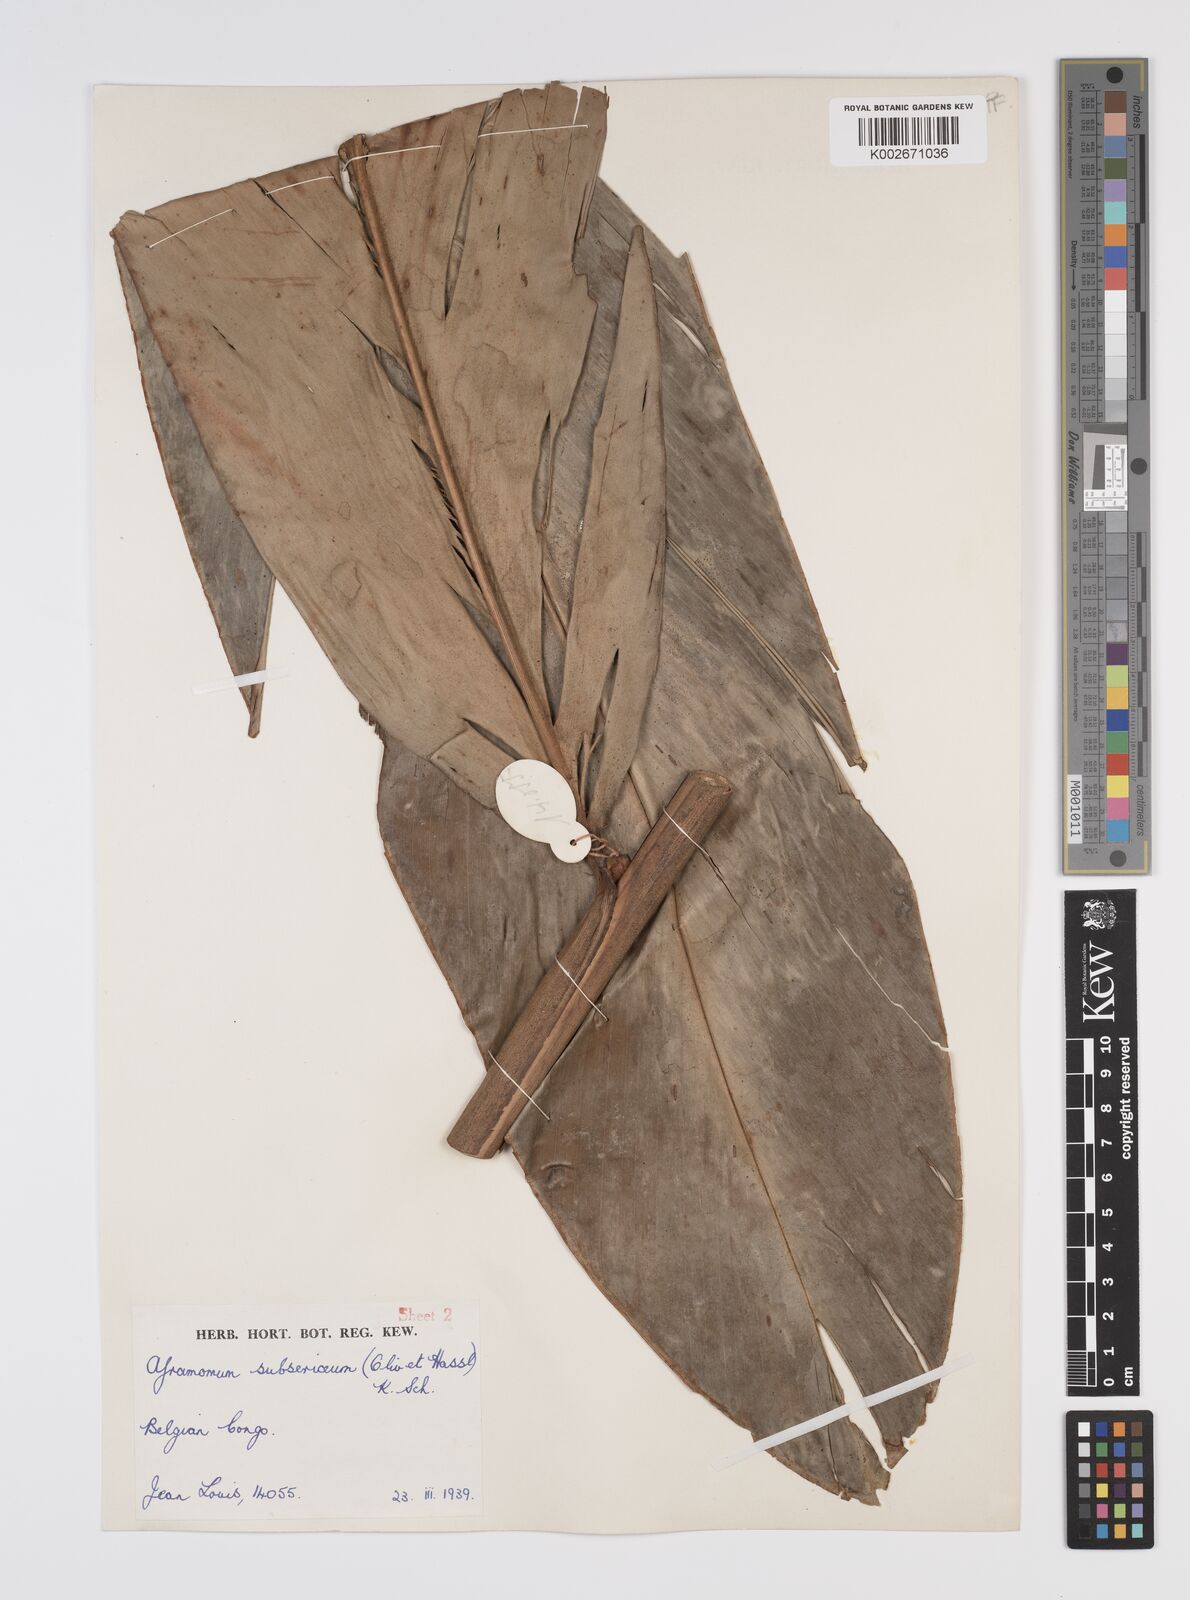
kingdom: Plantae
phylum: Tracheophyta
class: Liliopsida
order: Zingiberales
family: Zingiberaceae
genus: Aframomum
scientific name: Aframomum luteoalbum
